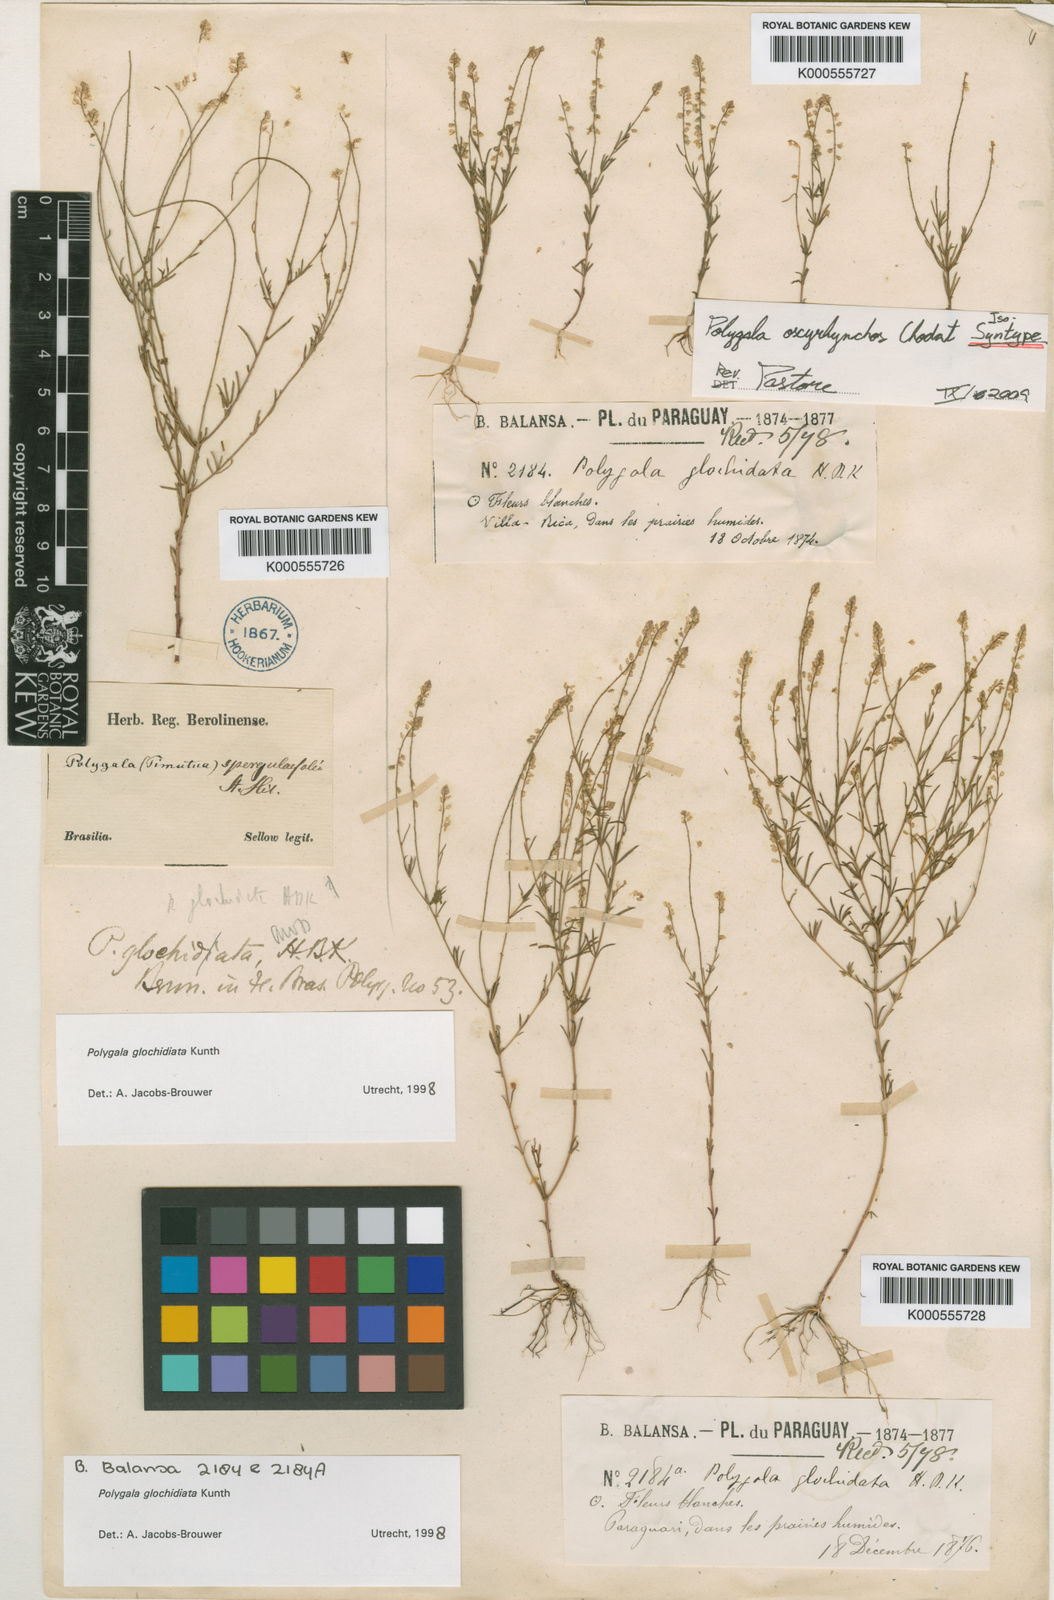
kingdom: Plantae
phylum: Tracheophyta
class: Magnoliopsida
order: Fabales
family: Polygalaceae
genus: Polygala
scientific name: Polygala glochidiata
